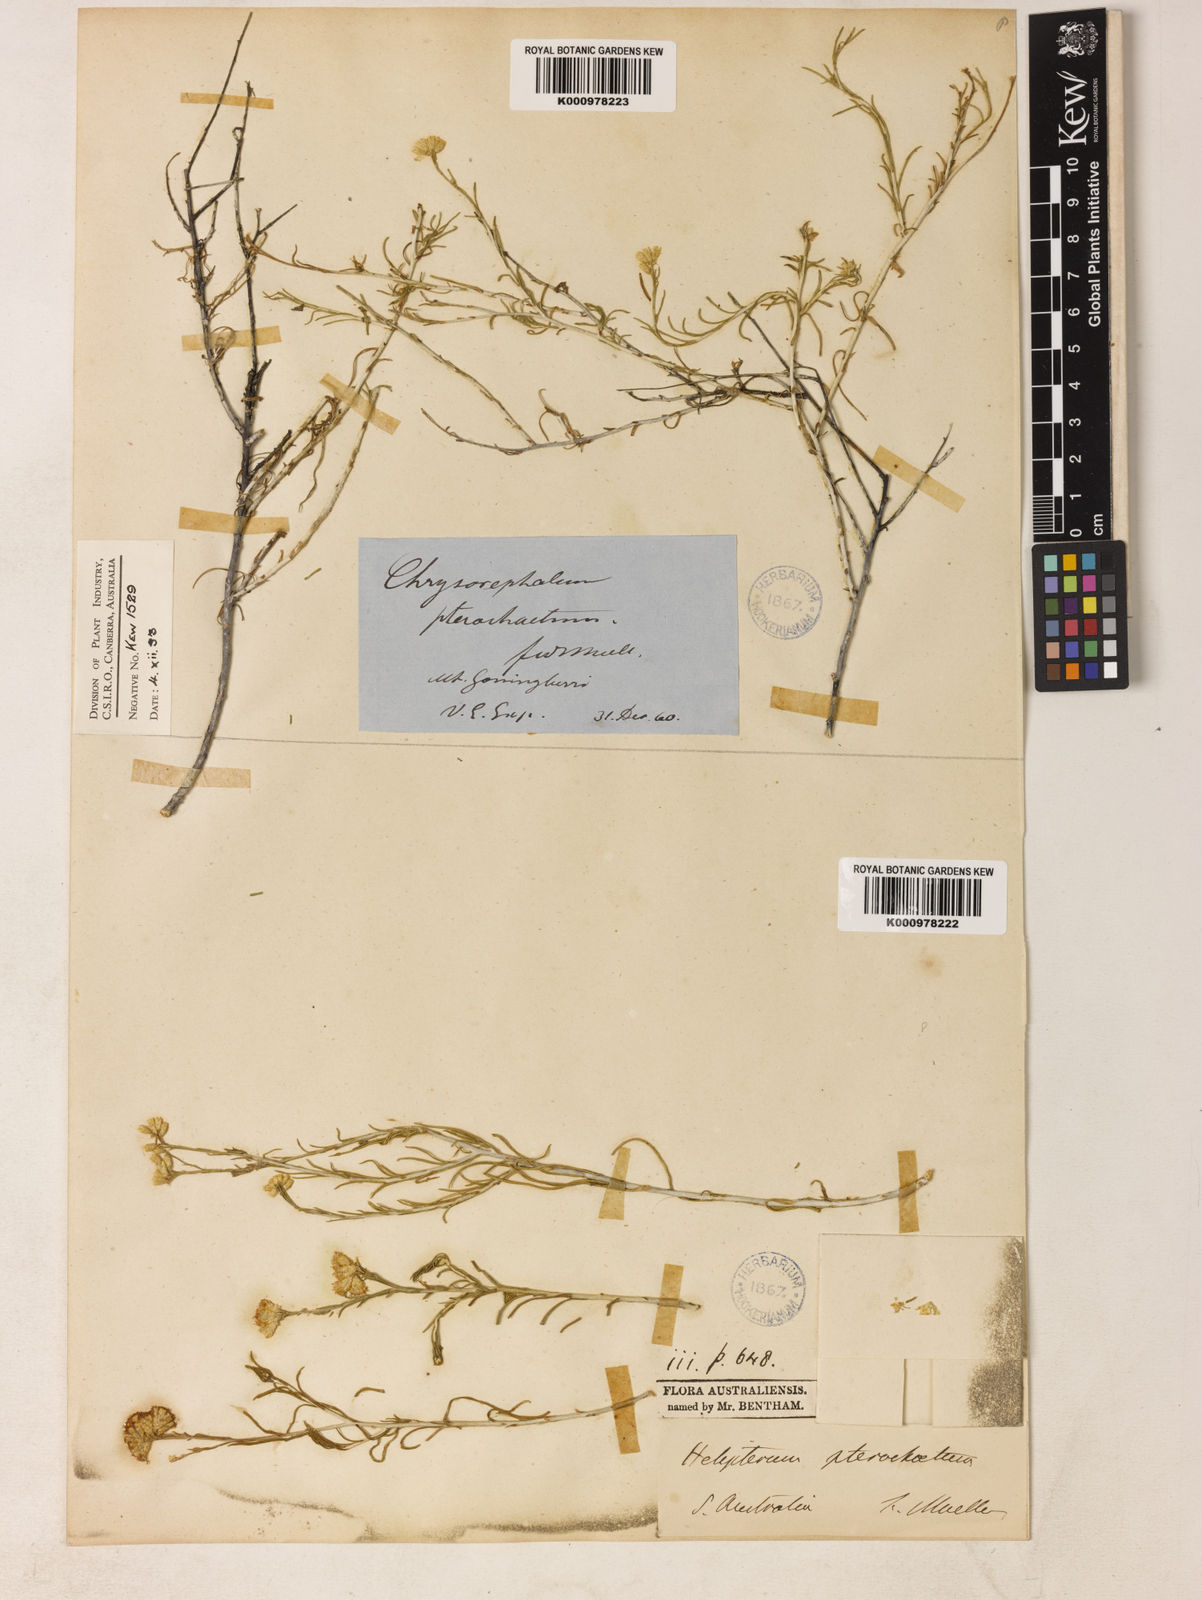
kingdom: Plantae
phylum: Tracheophyta
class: Magnoliopsida
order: Asterales
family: Asteraceae
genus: Chrysocephalum
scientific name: Chrysocephalum pterochaetum
